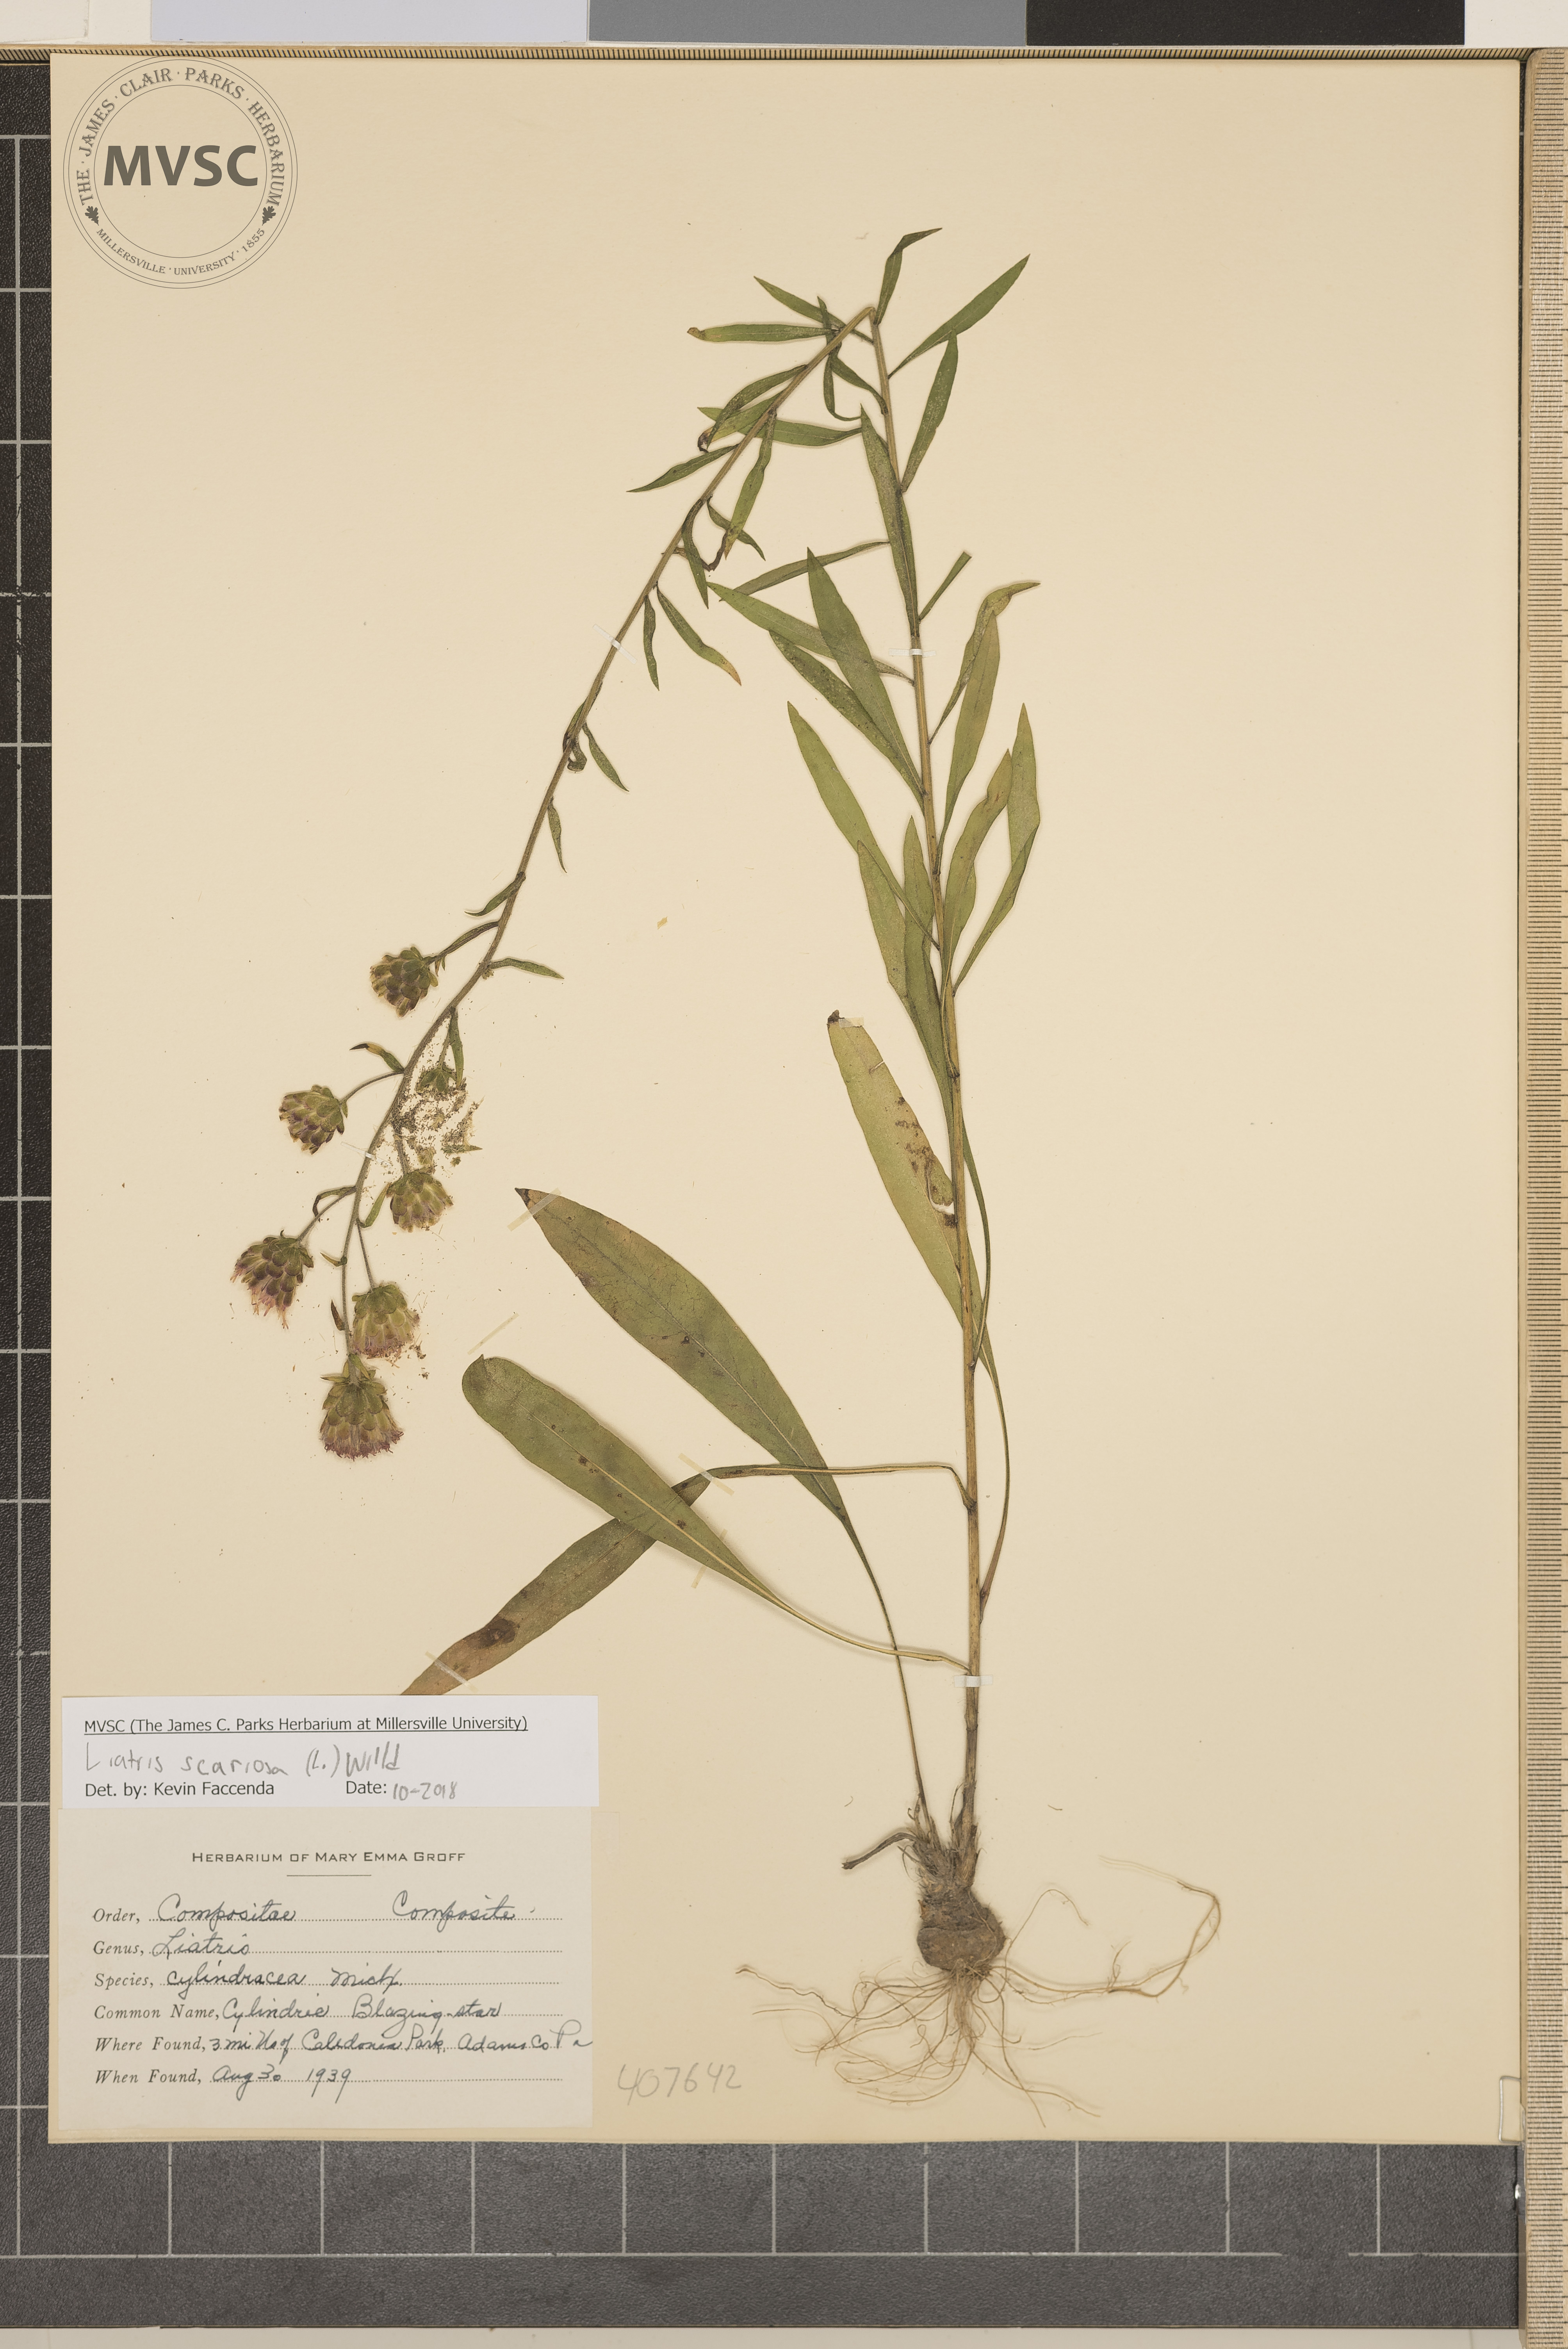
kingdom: Plantae
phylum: Tracheophyta
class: Magnoliopsida
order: Asterales
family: Asteraceae
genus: Liatris
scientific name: Liatris scariosa
